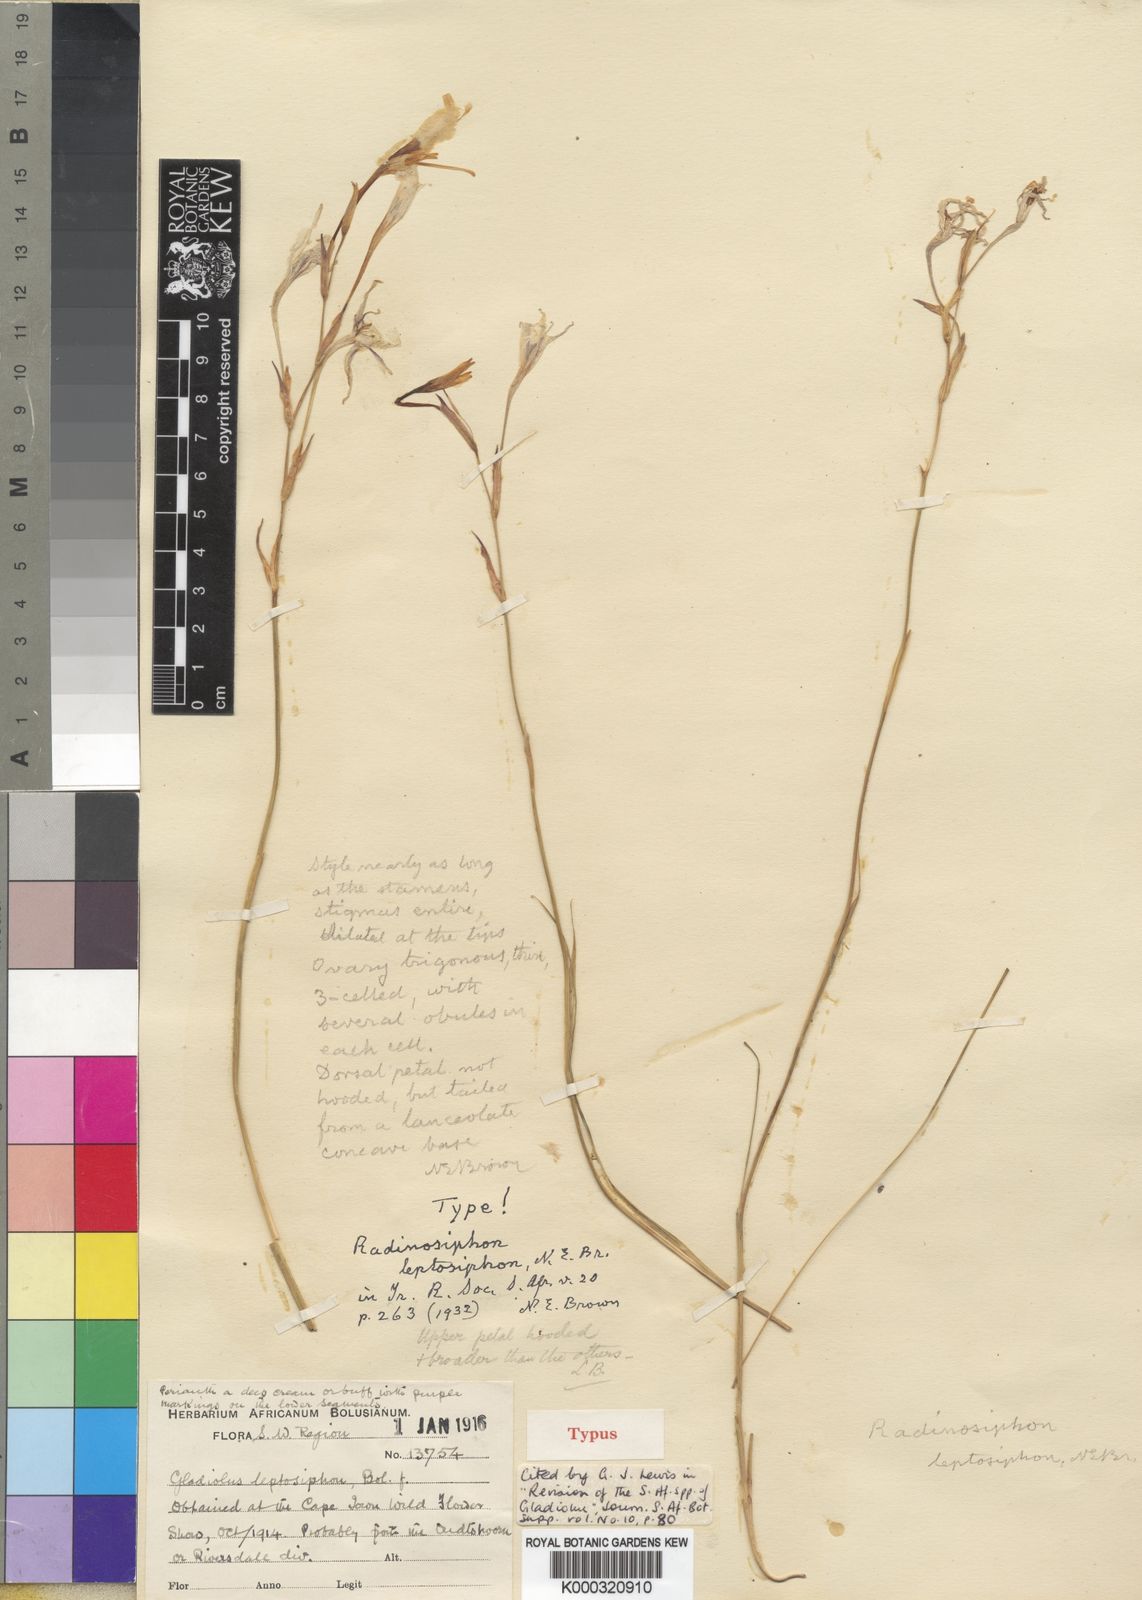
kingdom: Plantae
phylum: Tracheophyta
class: Liliopsida
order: Asparagales
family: Iridaceae
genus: Gladiolus
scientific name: Gladiolus
